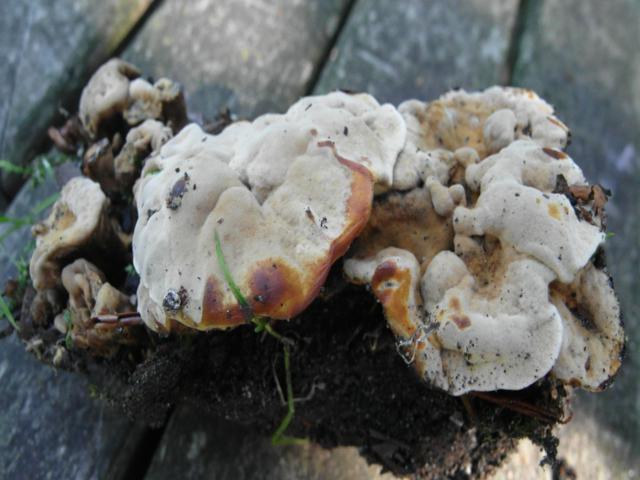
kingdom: Fungi
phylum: Basidiomycota
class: Agaricomycetes
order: Hymenochaetales
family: Hymenochaetaceae
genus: Coltricia
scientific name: Coltricia confluens
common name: park-sandporesvamp
